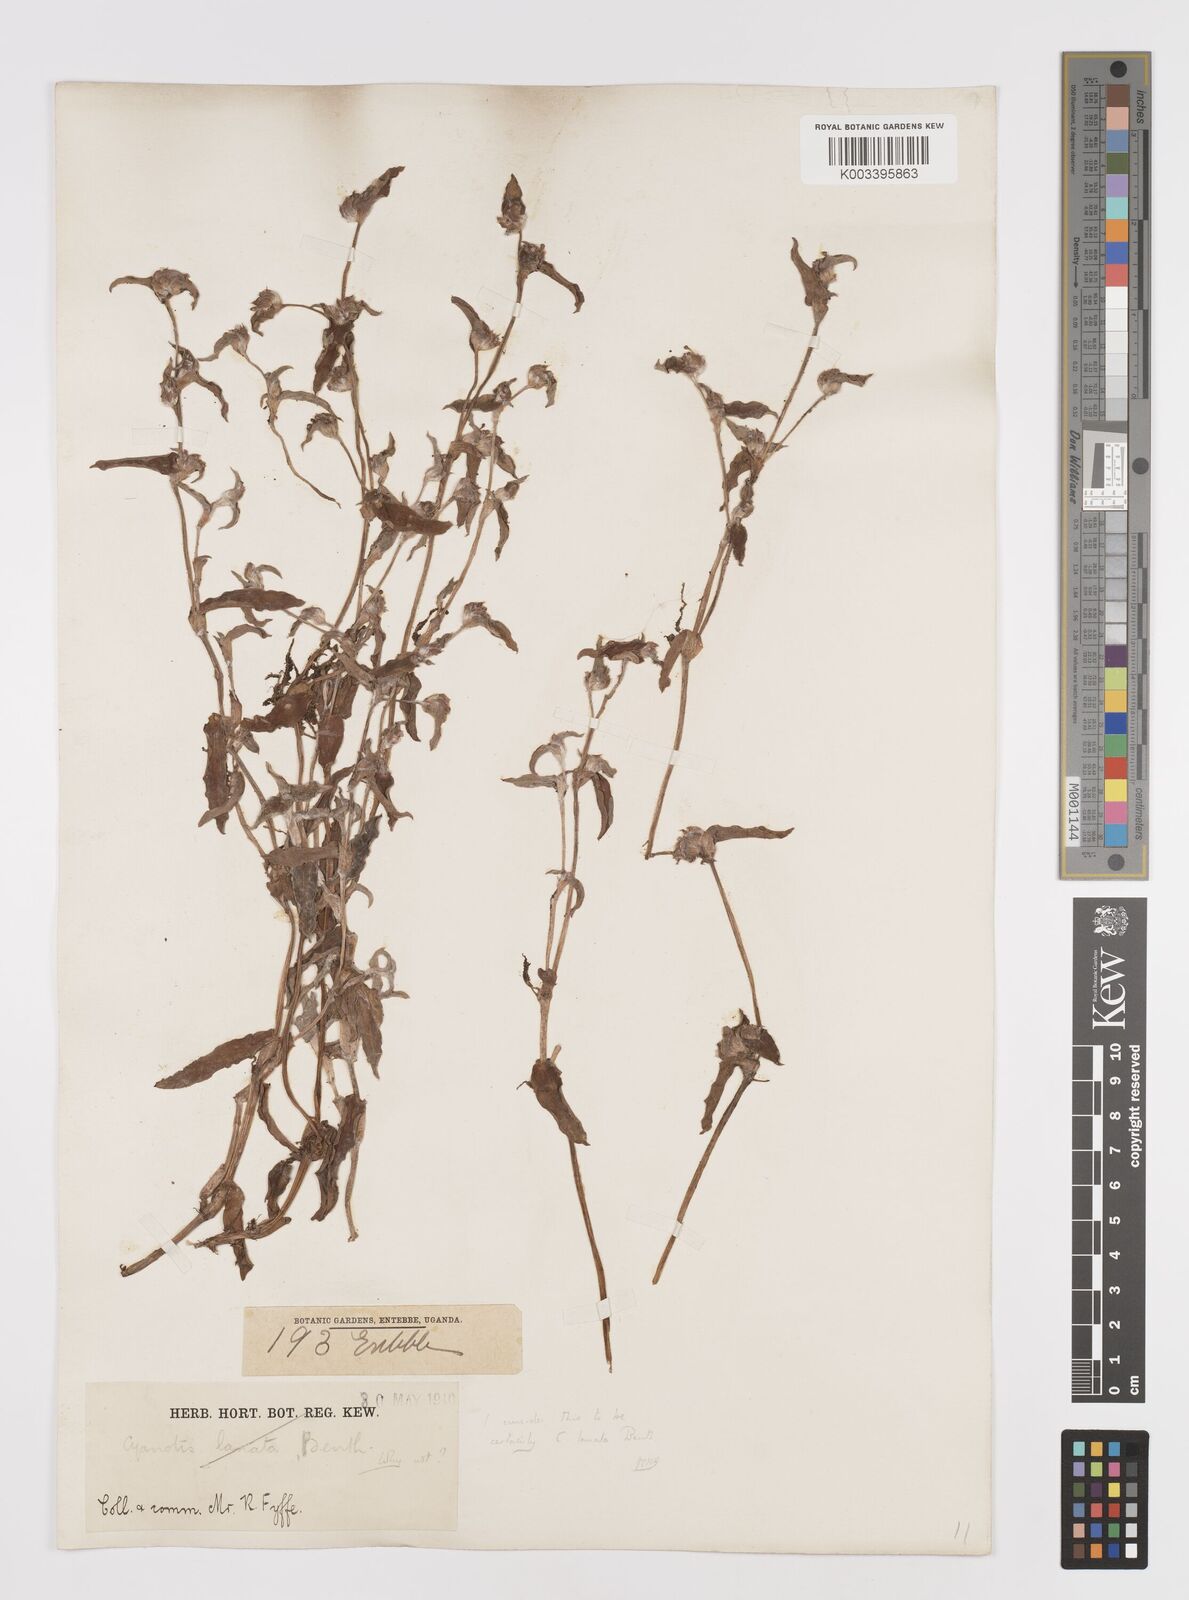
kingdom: Plantae
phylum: Tracheophyta
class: Liliopsida
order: Commelinales
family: Commelinaceae
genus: Cyanotis
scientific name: Cyanotis lanata
